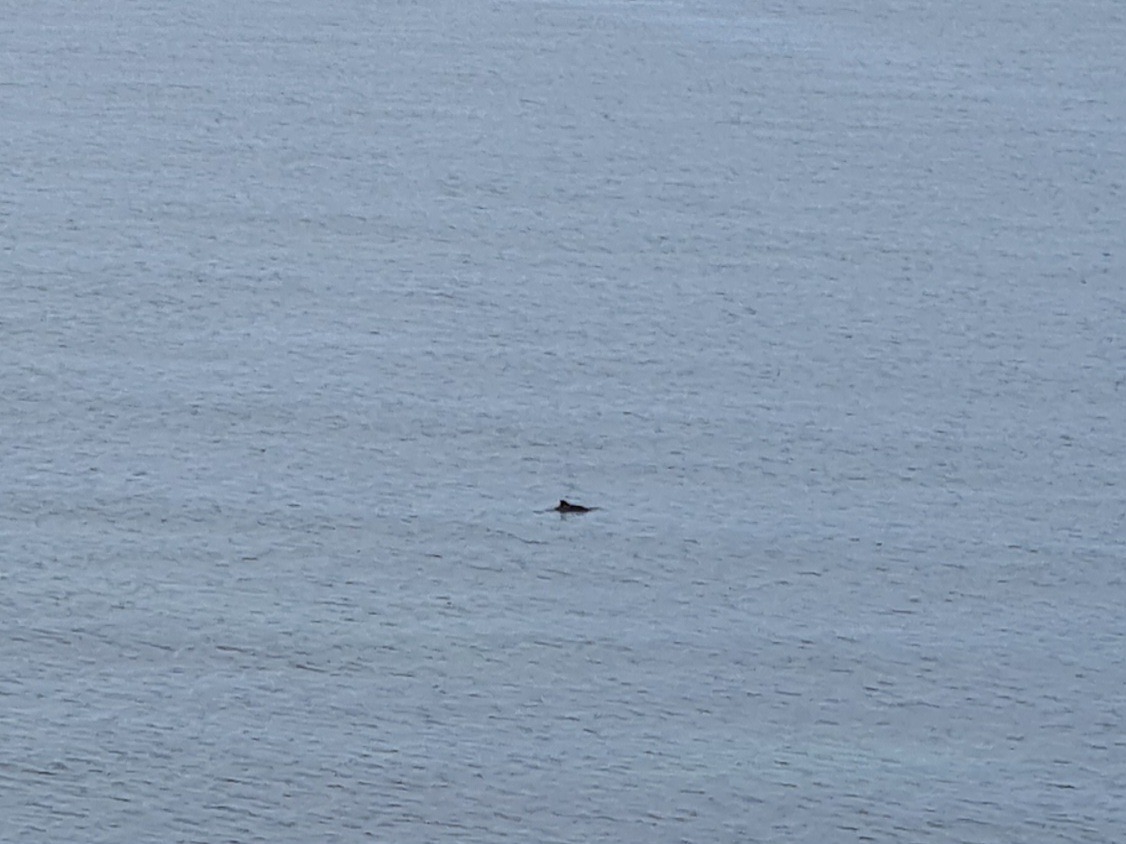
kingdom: Animalia
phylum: Chordata
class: Mammalia
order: Cetacea
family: Phocoenidae
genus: Phocoena
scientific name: Phocoena phocoena
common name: Marsvin
